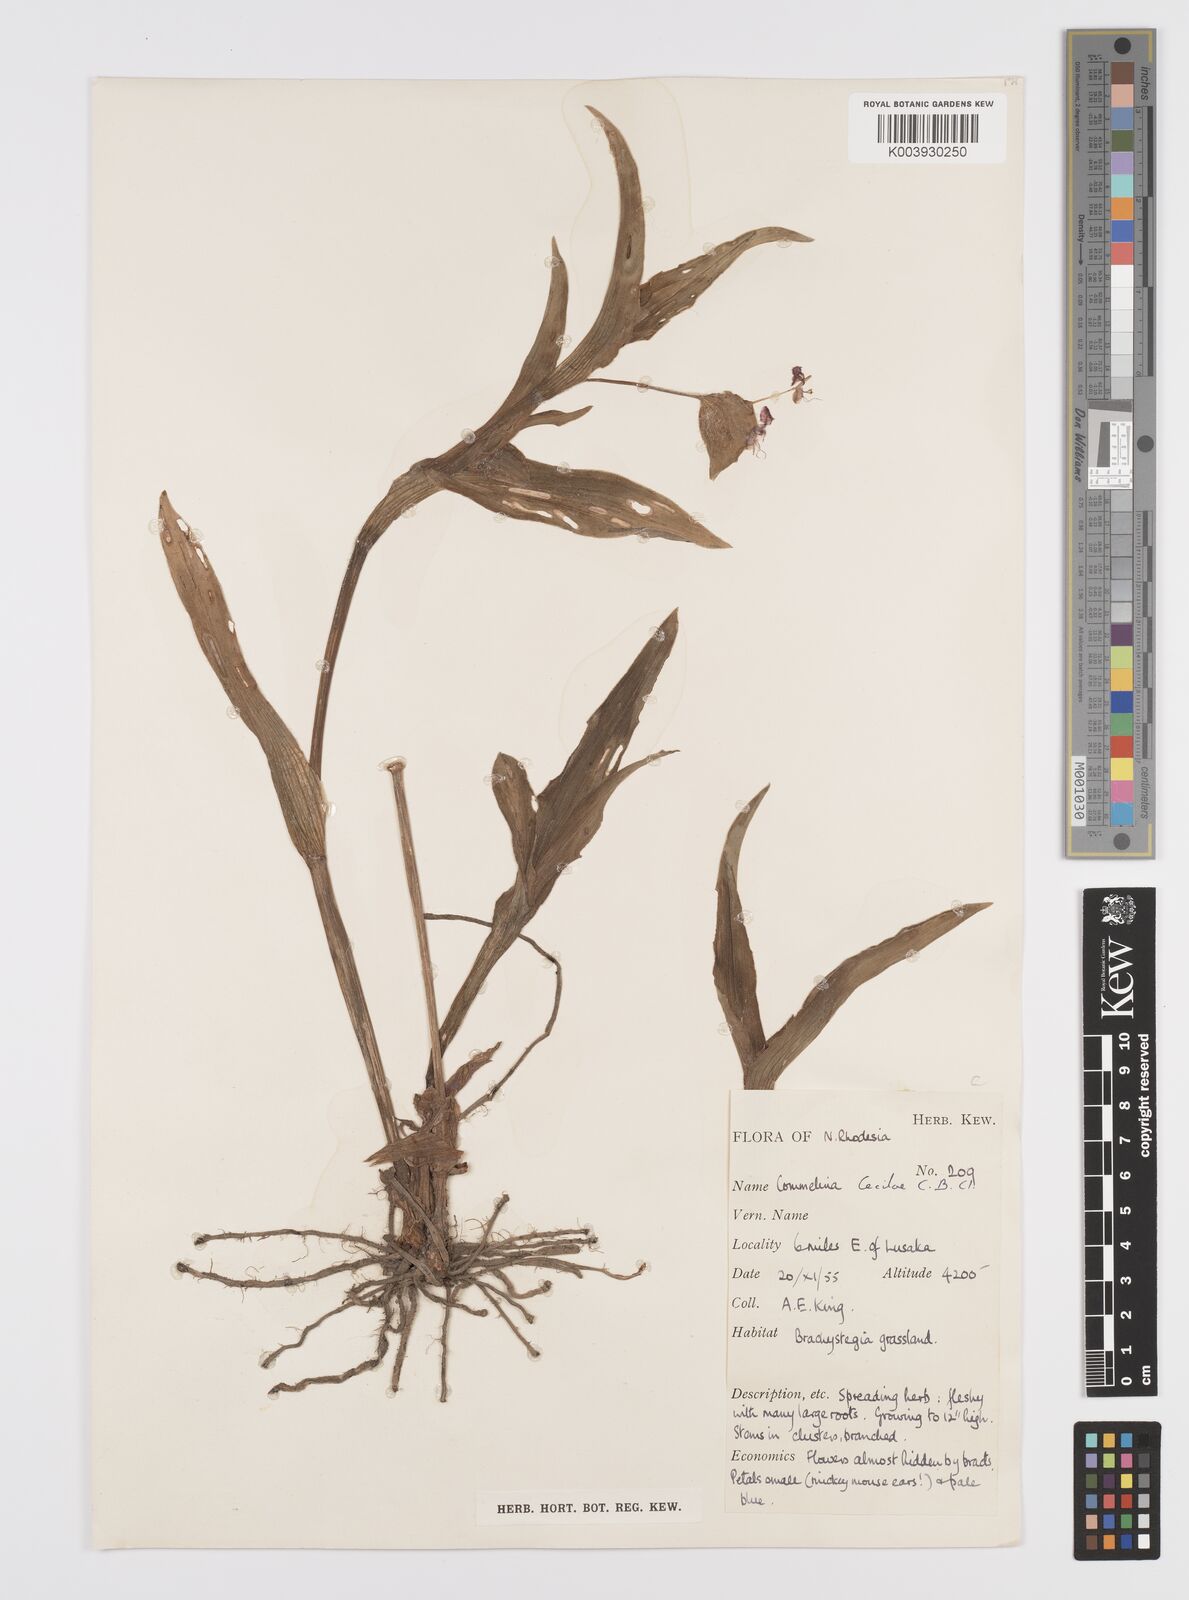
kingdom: Plantae
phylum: Tracheophyta
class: Liliopsida
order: Commelinales
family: Commelinaceae
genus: Commelina
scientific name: Commelina schweinfurthii
